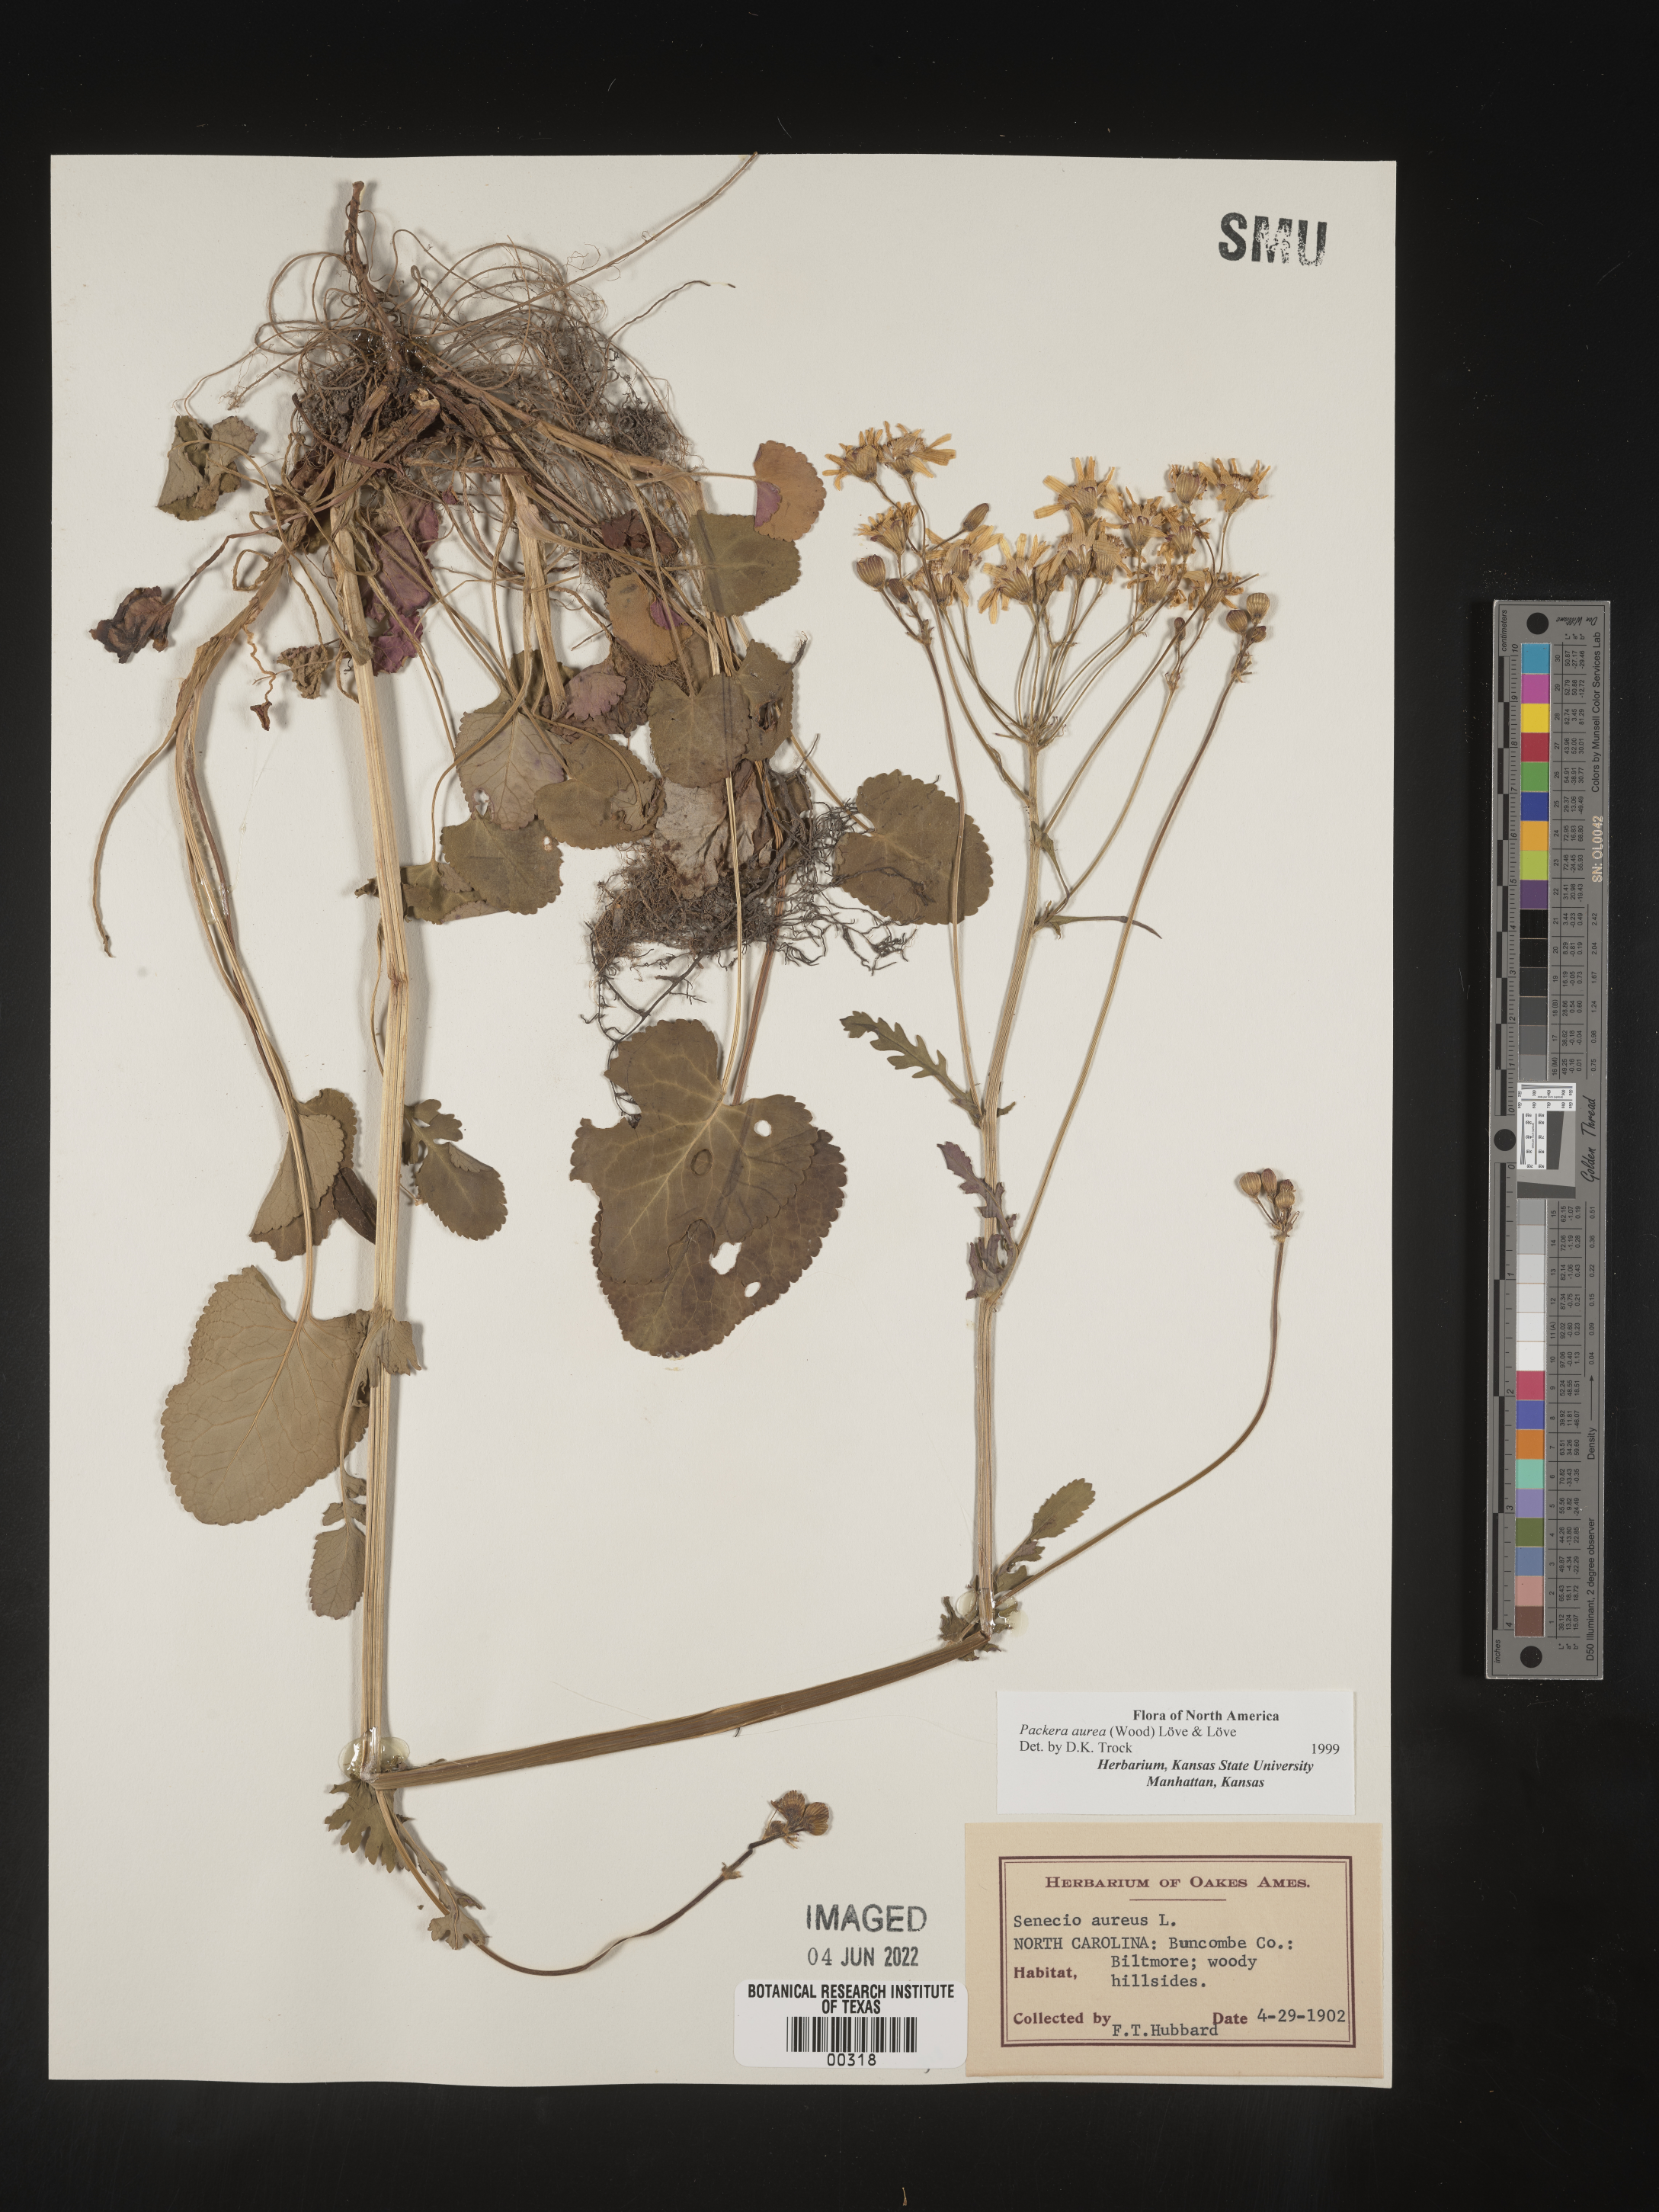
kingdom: Plantae
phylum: Tracheophyta
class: Magnoliopsida
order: Asterales
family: Asteraceae
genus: Packera
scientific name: Packera aurea
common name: Golden groundsel
